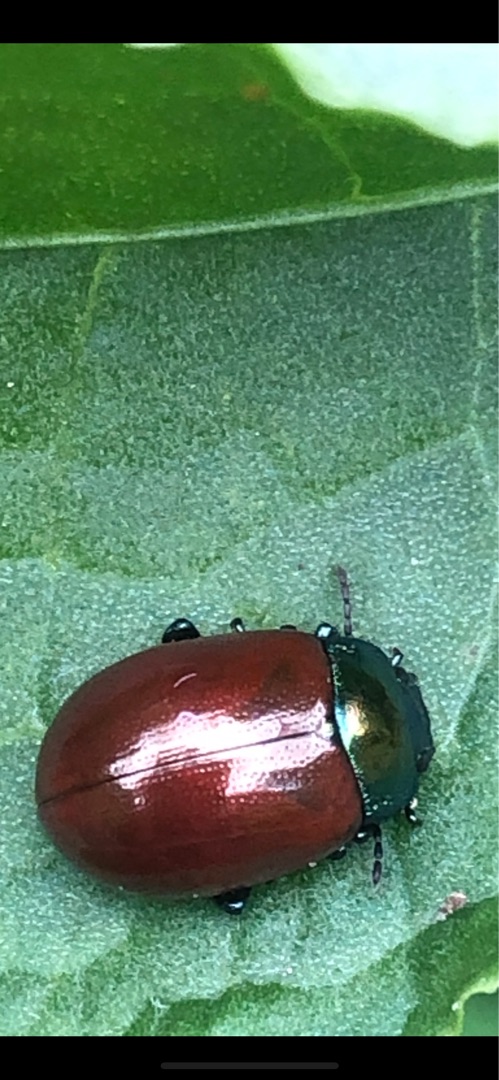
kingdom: Animalia
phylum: Arthropoda
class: Insecta
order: Coleoptera
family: Chrysomelidae
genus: Chrysomela
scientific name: Chrysomela polita
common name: Forskelligfarvet guldbille
